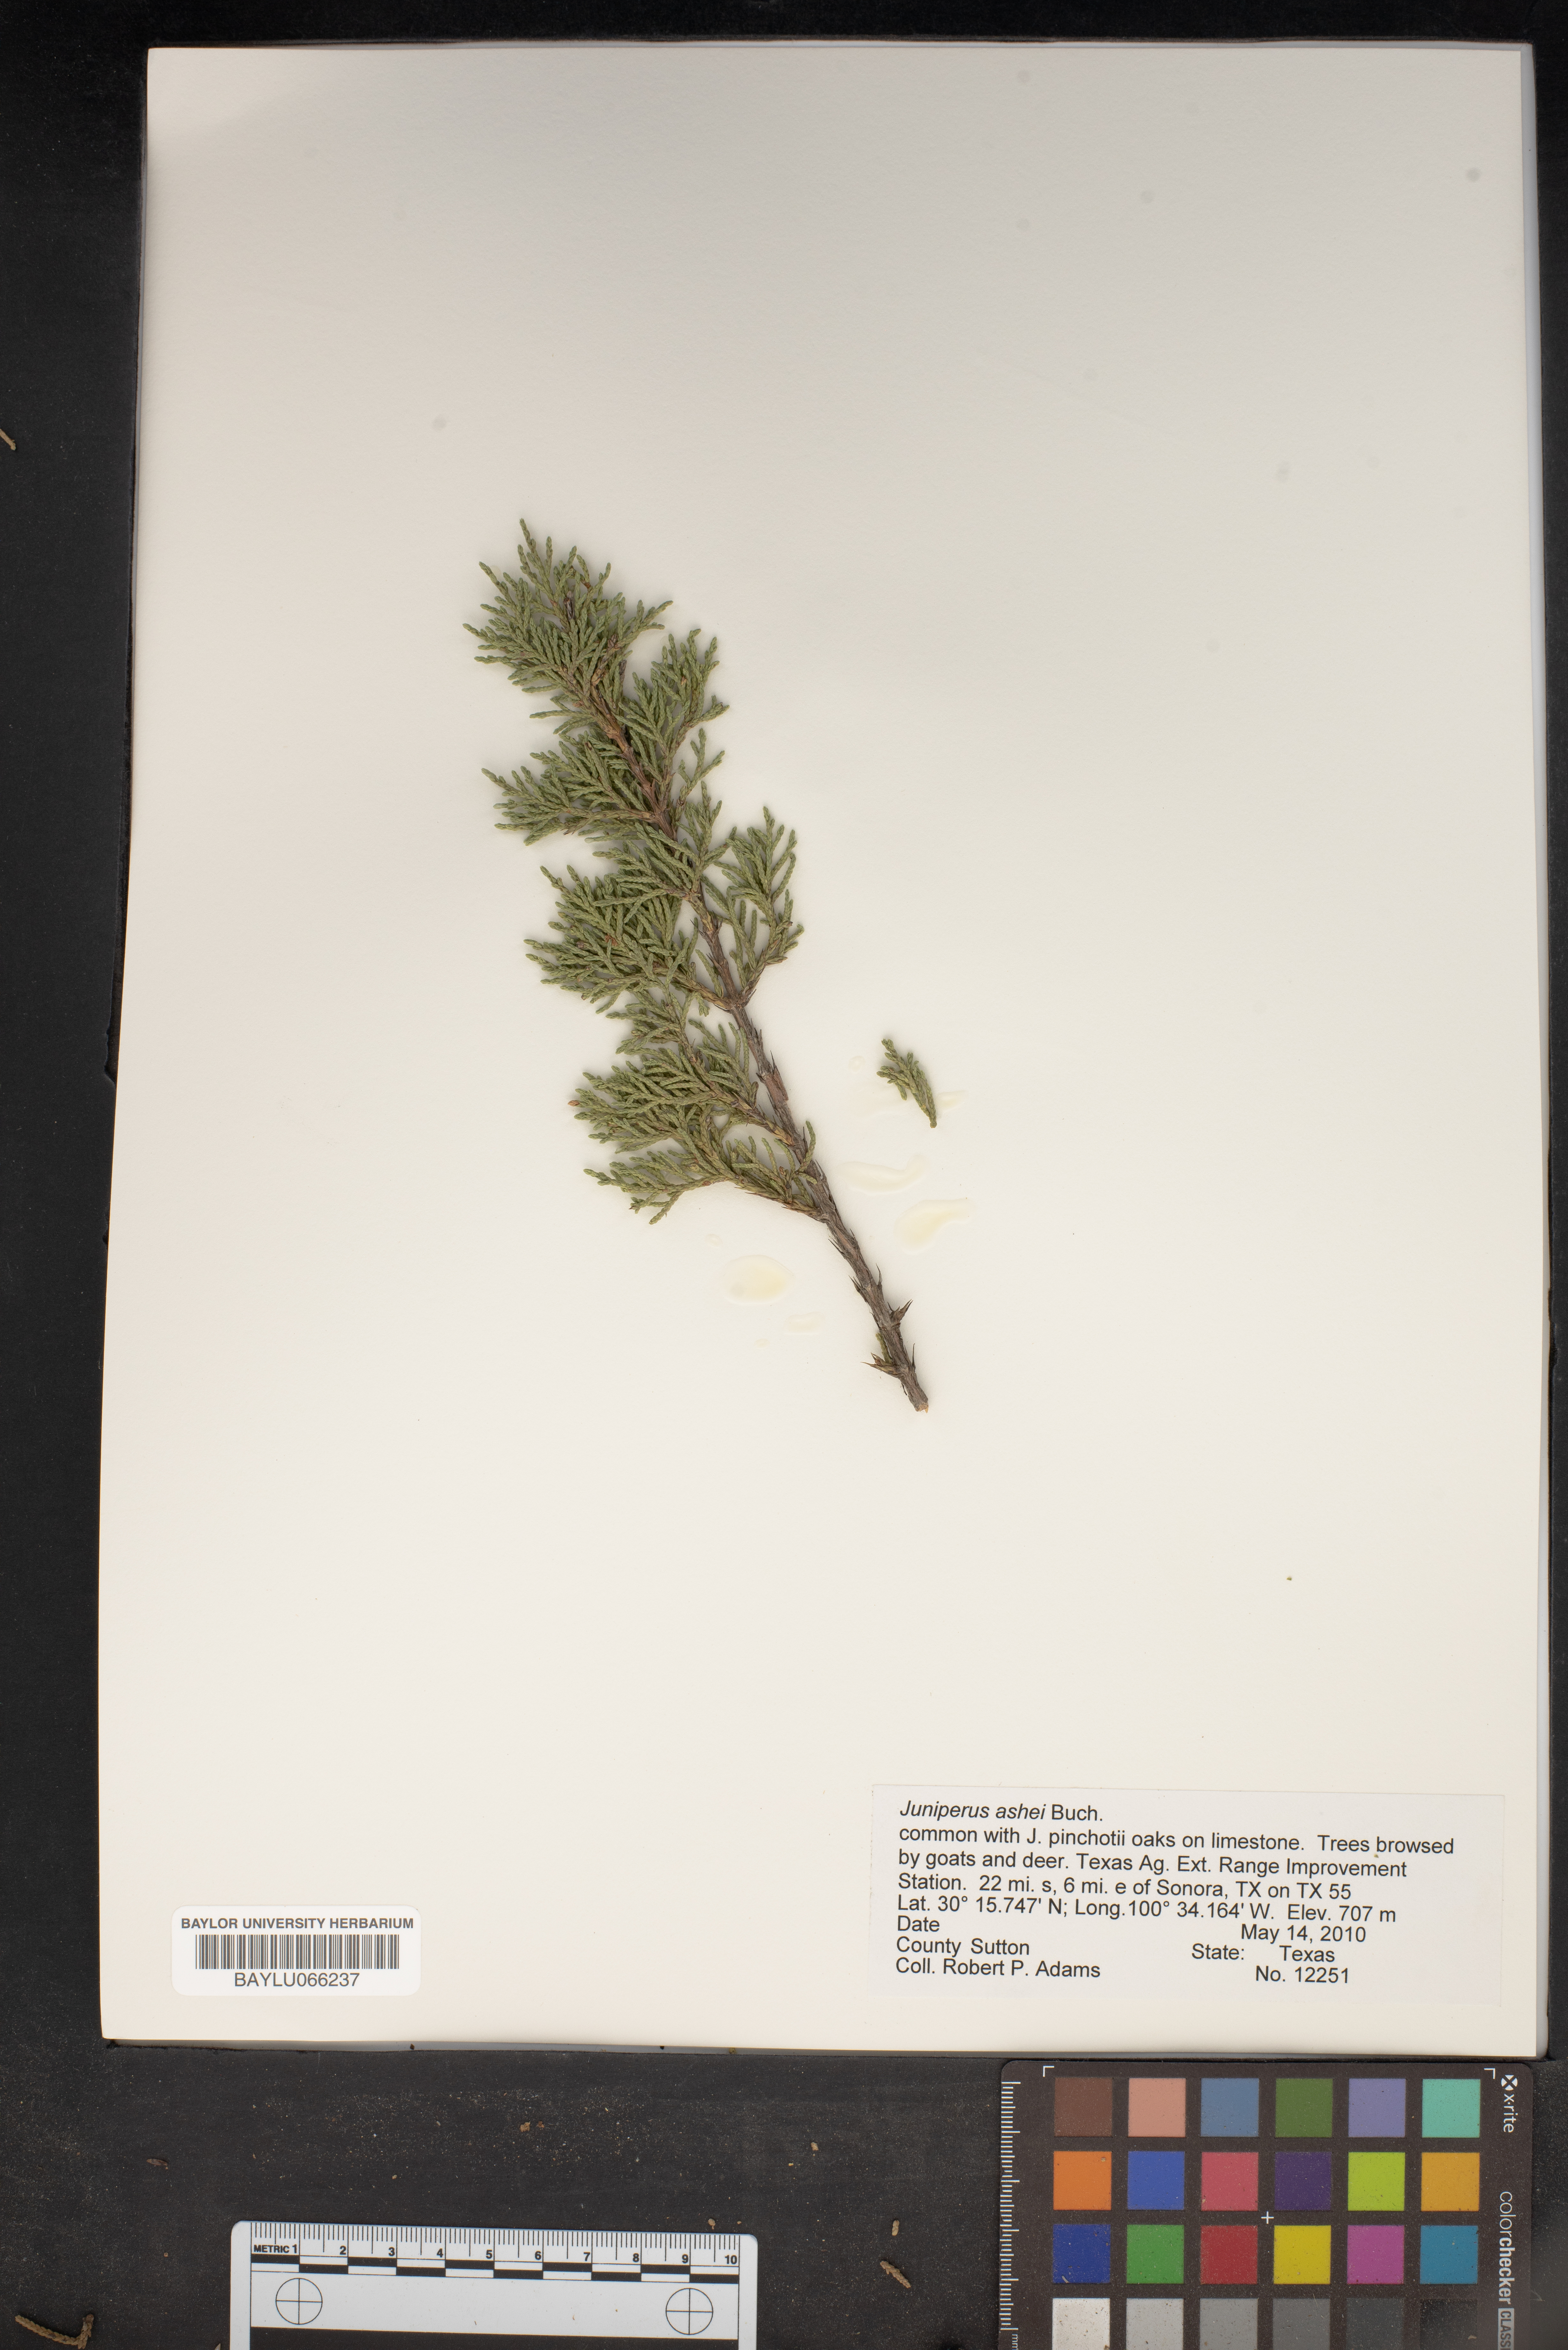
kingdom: Plantae
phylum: Tracheophyta
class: Pinopsida
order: Pinales
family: Cupressaceae
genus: Juniperus
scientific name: Juniperus ashei
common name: Mexican juniper
